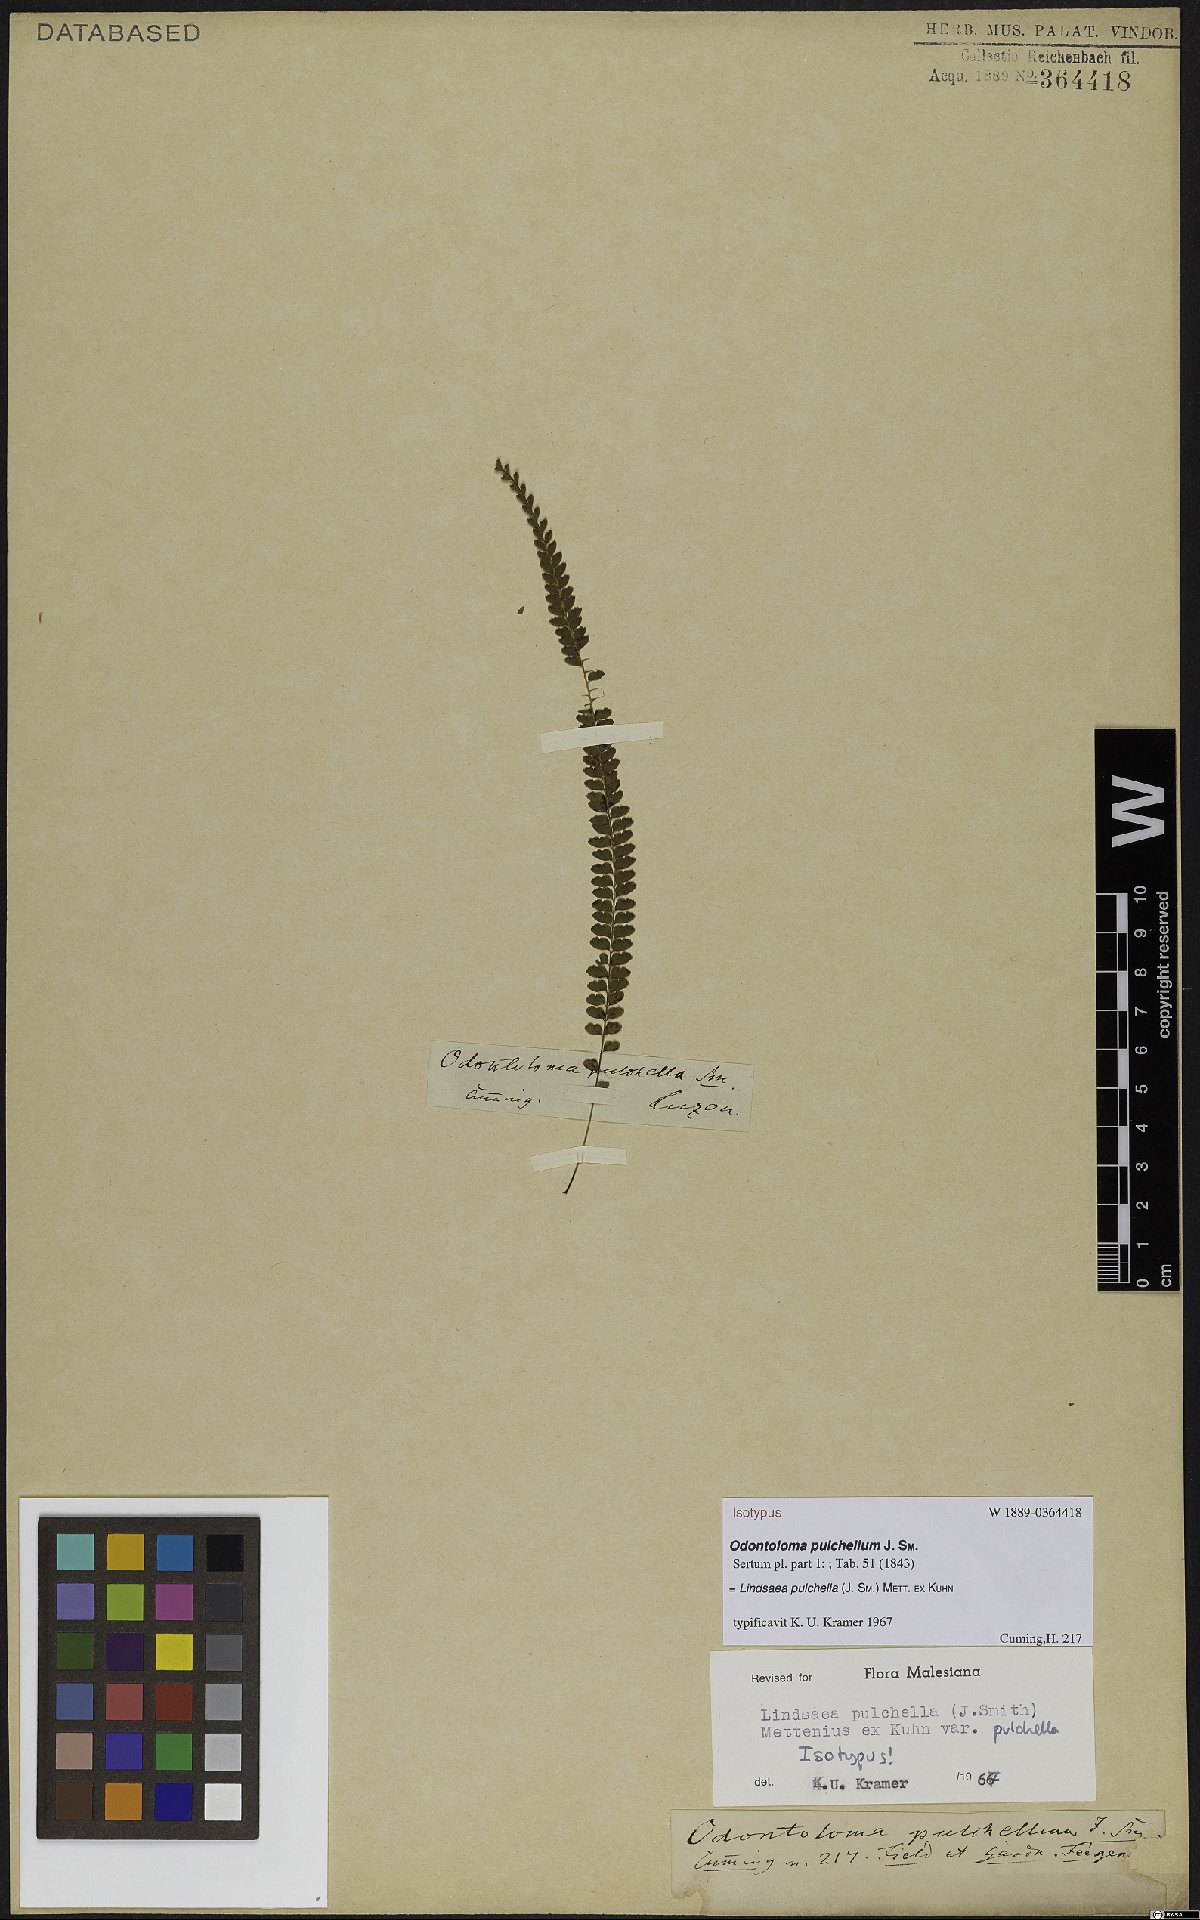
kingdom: Plantae
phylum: Tracheophyta
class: Polypodiopsida
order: Polypodiales
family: Lindsaeaceae
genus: Lindsaea
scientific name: Lindsaea pulchella
